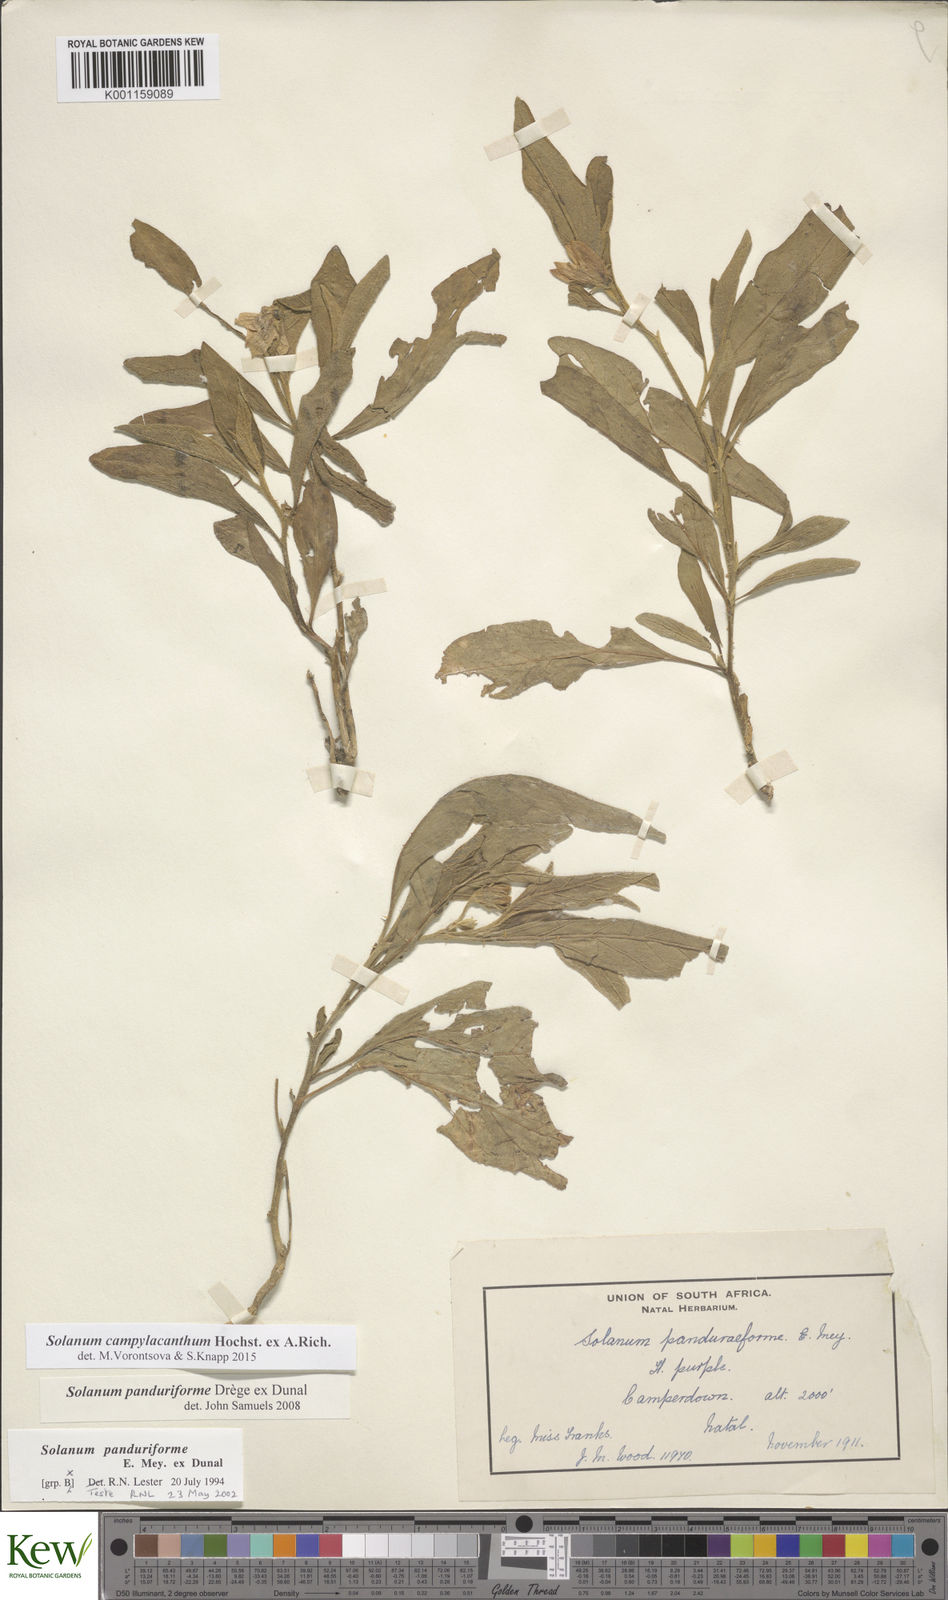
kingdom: Plantae
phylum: Tracheophyta
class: Magnoliopsida
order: Solanales
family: Solanaceae
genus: Solanum
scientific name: Solanum campylacanthum
